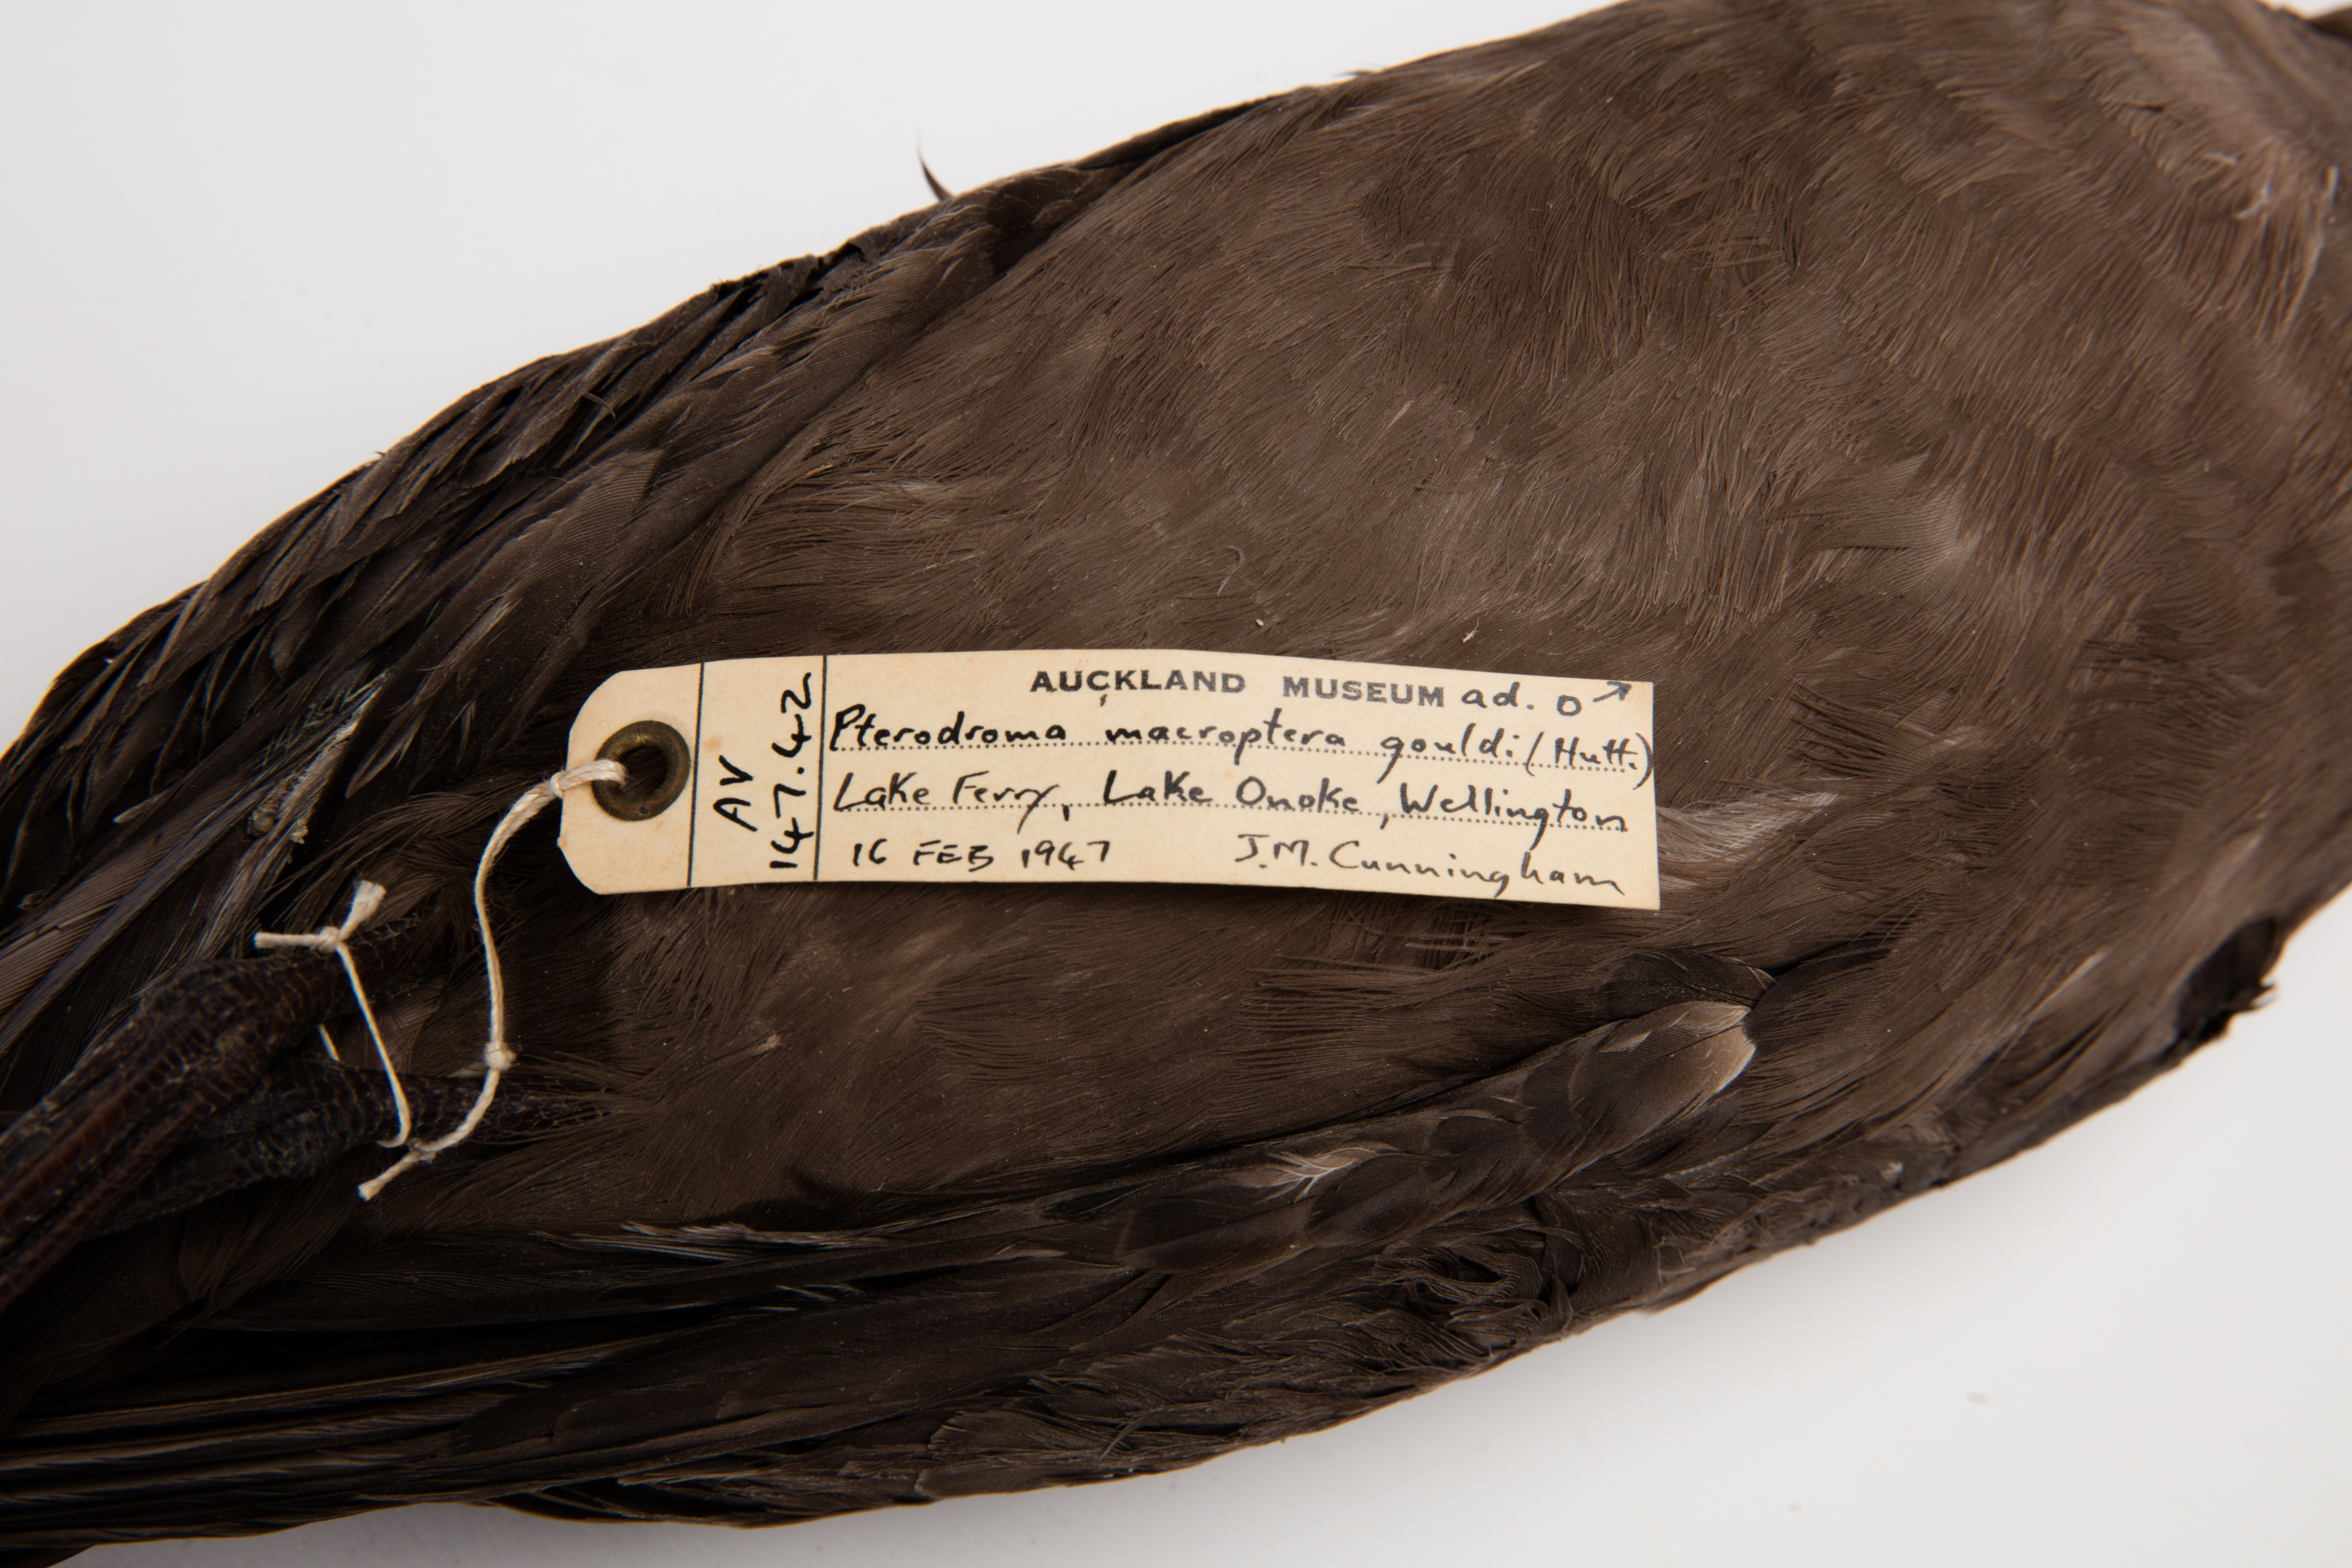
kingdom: Animalia
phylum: Chordata
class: Aves
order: Procellariiformes
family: Procellariidae
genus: Pterodroma
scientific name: Pterodroma macroptera
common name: Great-winged petrel
